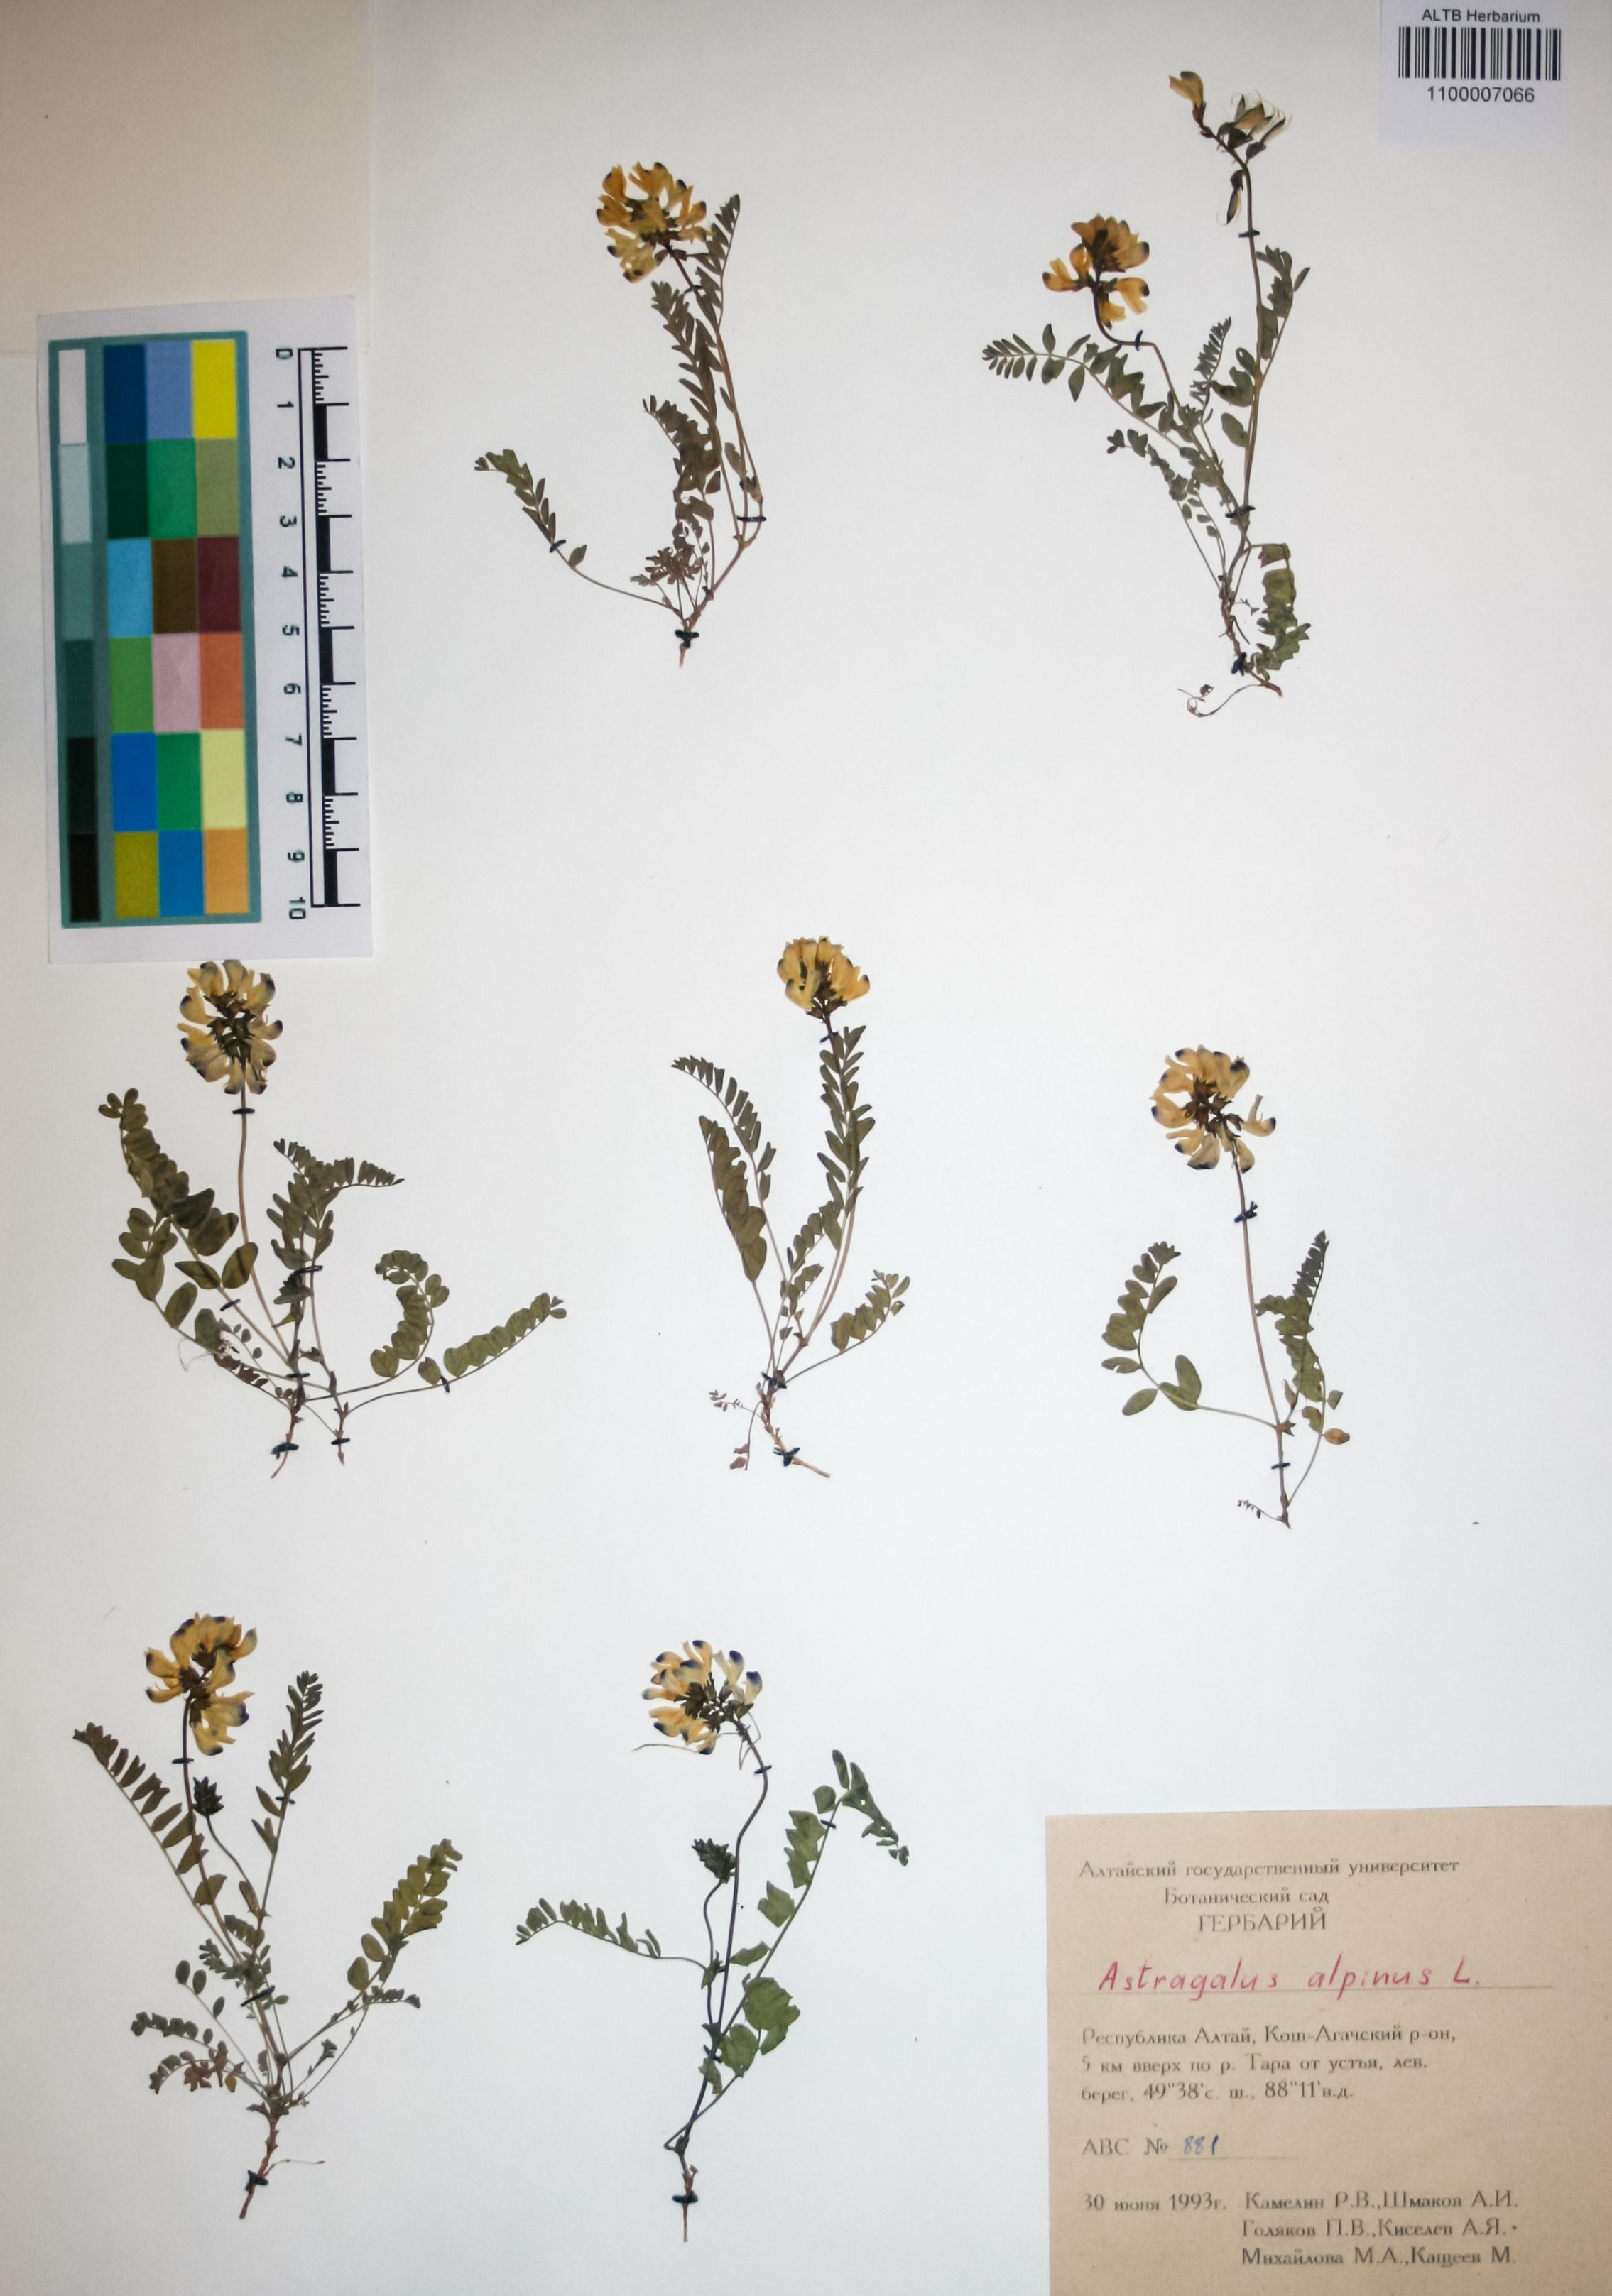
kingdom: Plantae
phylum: Tracheophyta
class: Magnoliopsida
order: Fabales
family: Fabaceae
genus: Astragalus
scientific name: Astragalus alpinus
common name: Alpine milk-vetch
